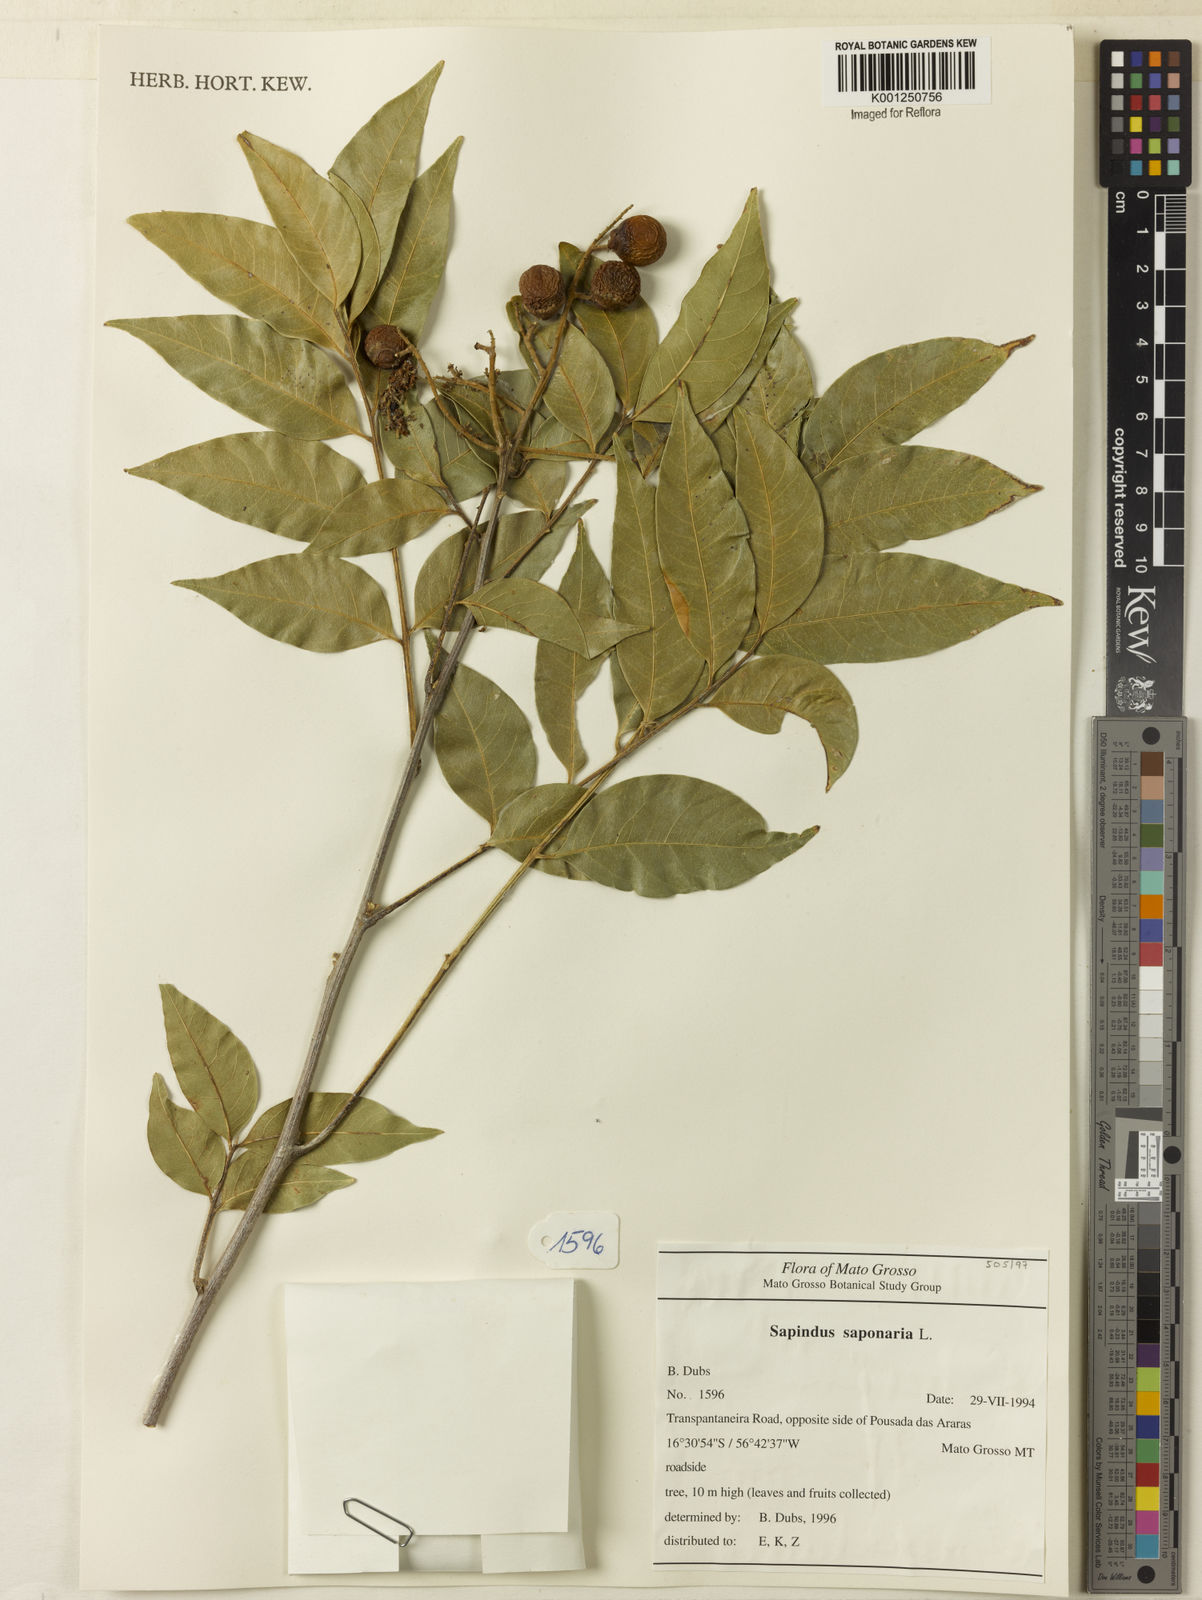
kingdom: Plantae
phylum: Tracheophyta
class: Magnoliopsida
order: Sapindales
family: Sapindaceae
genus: Sapindus
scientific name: Sapindus
